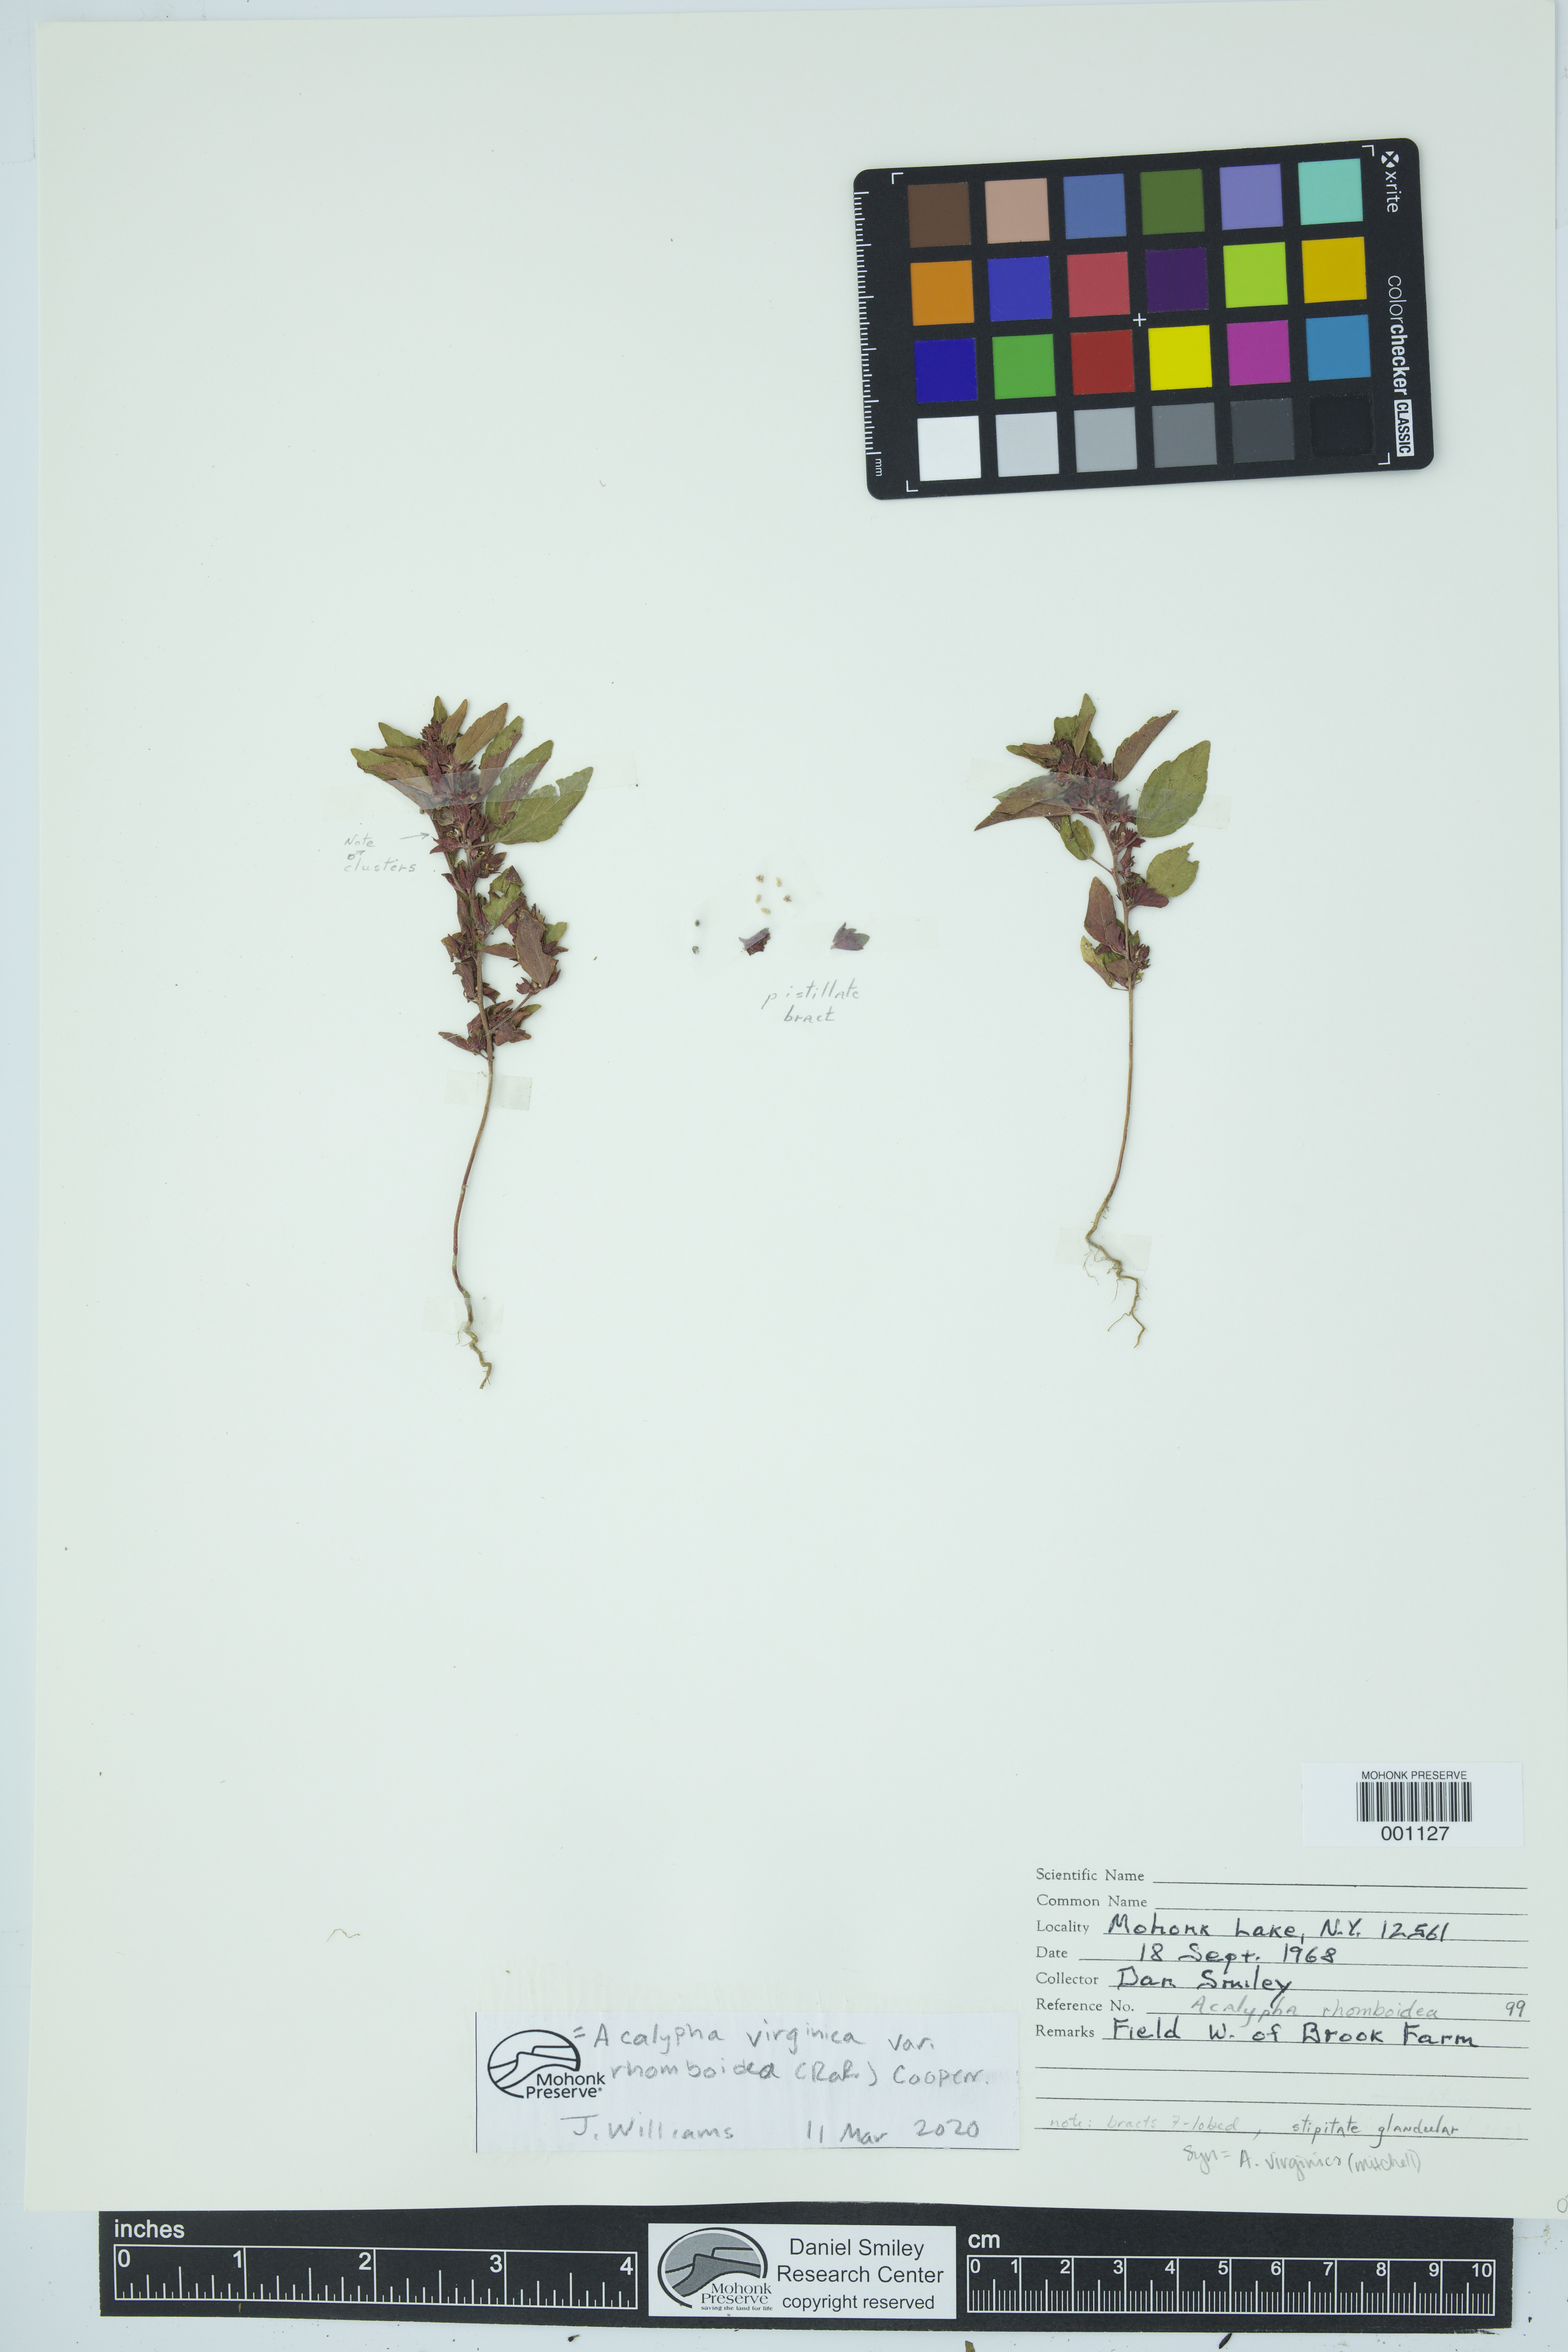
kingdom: Plantae
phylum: Tracheophyta
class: Magnoliopsida
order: Malpighiales
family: Euphorbiaceae
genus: Acalypha
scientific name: Acalypha rhomboidea
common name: Rhombic copperleaf
